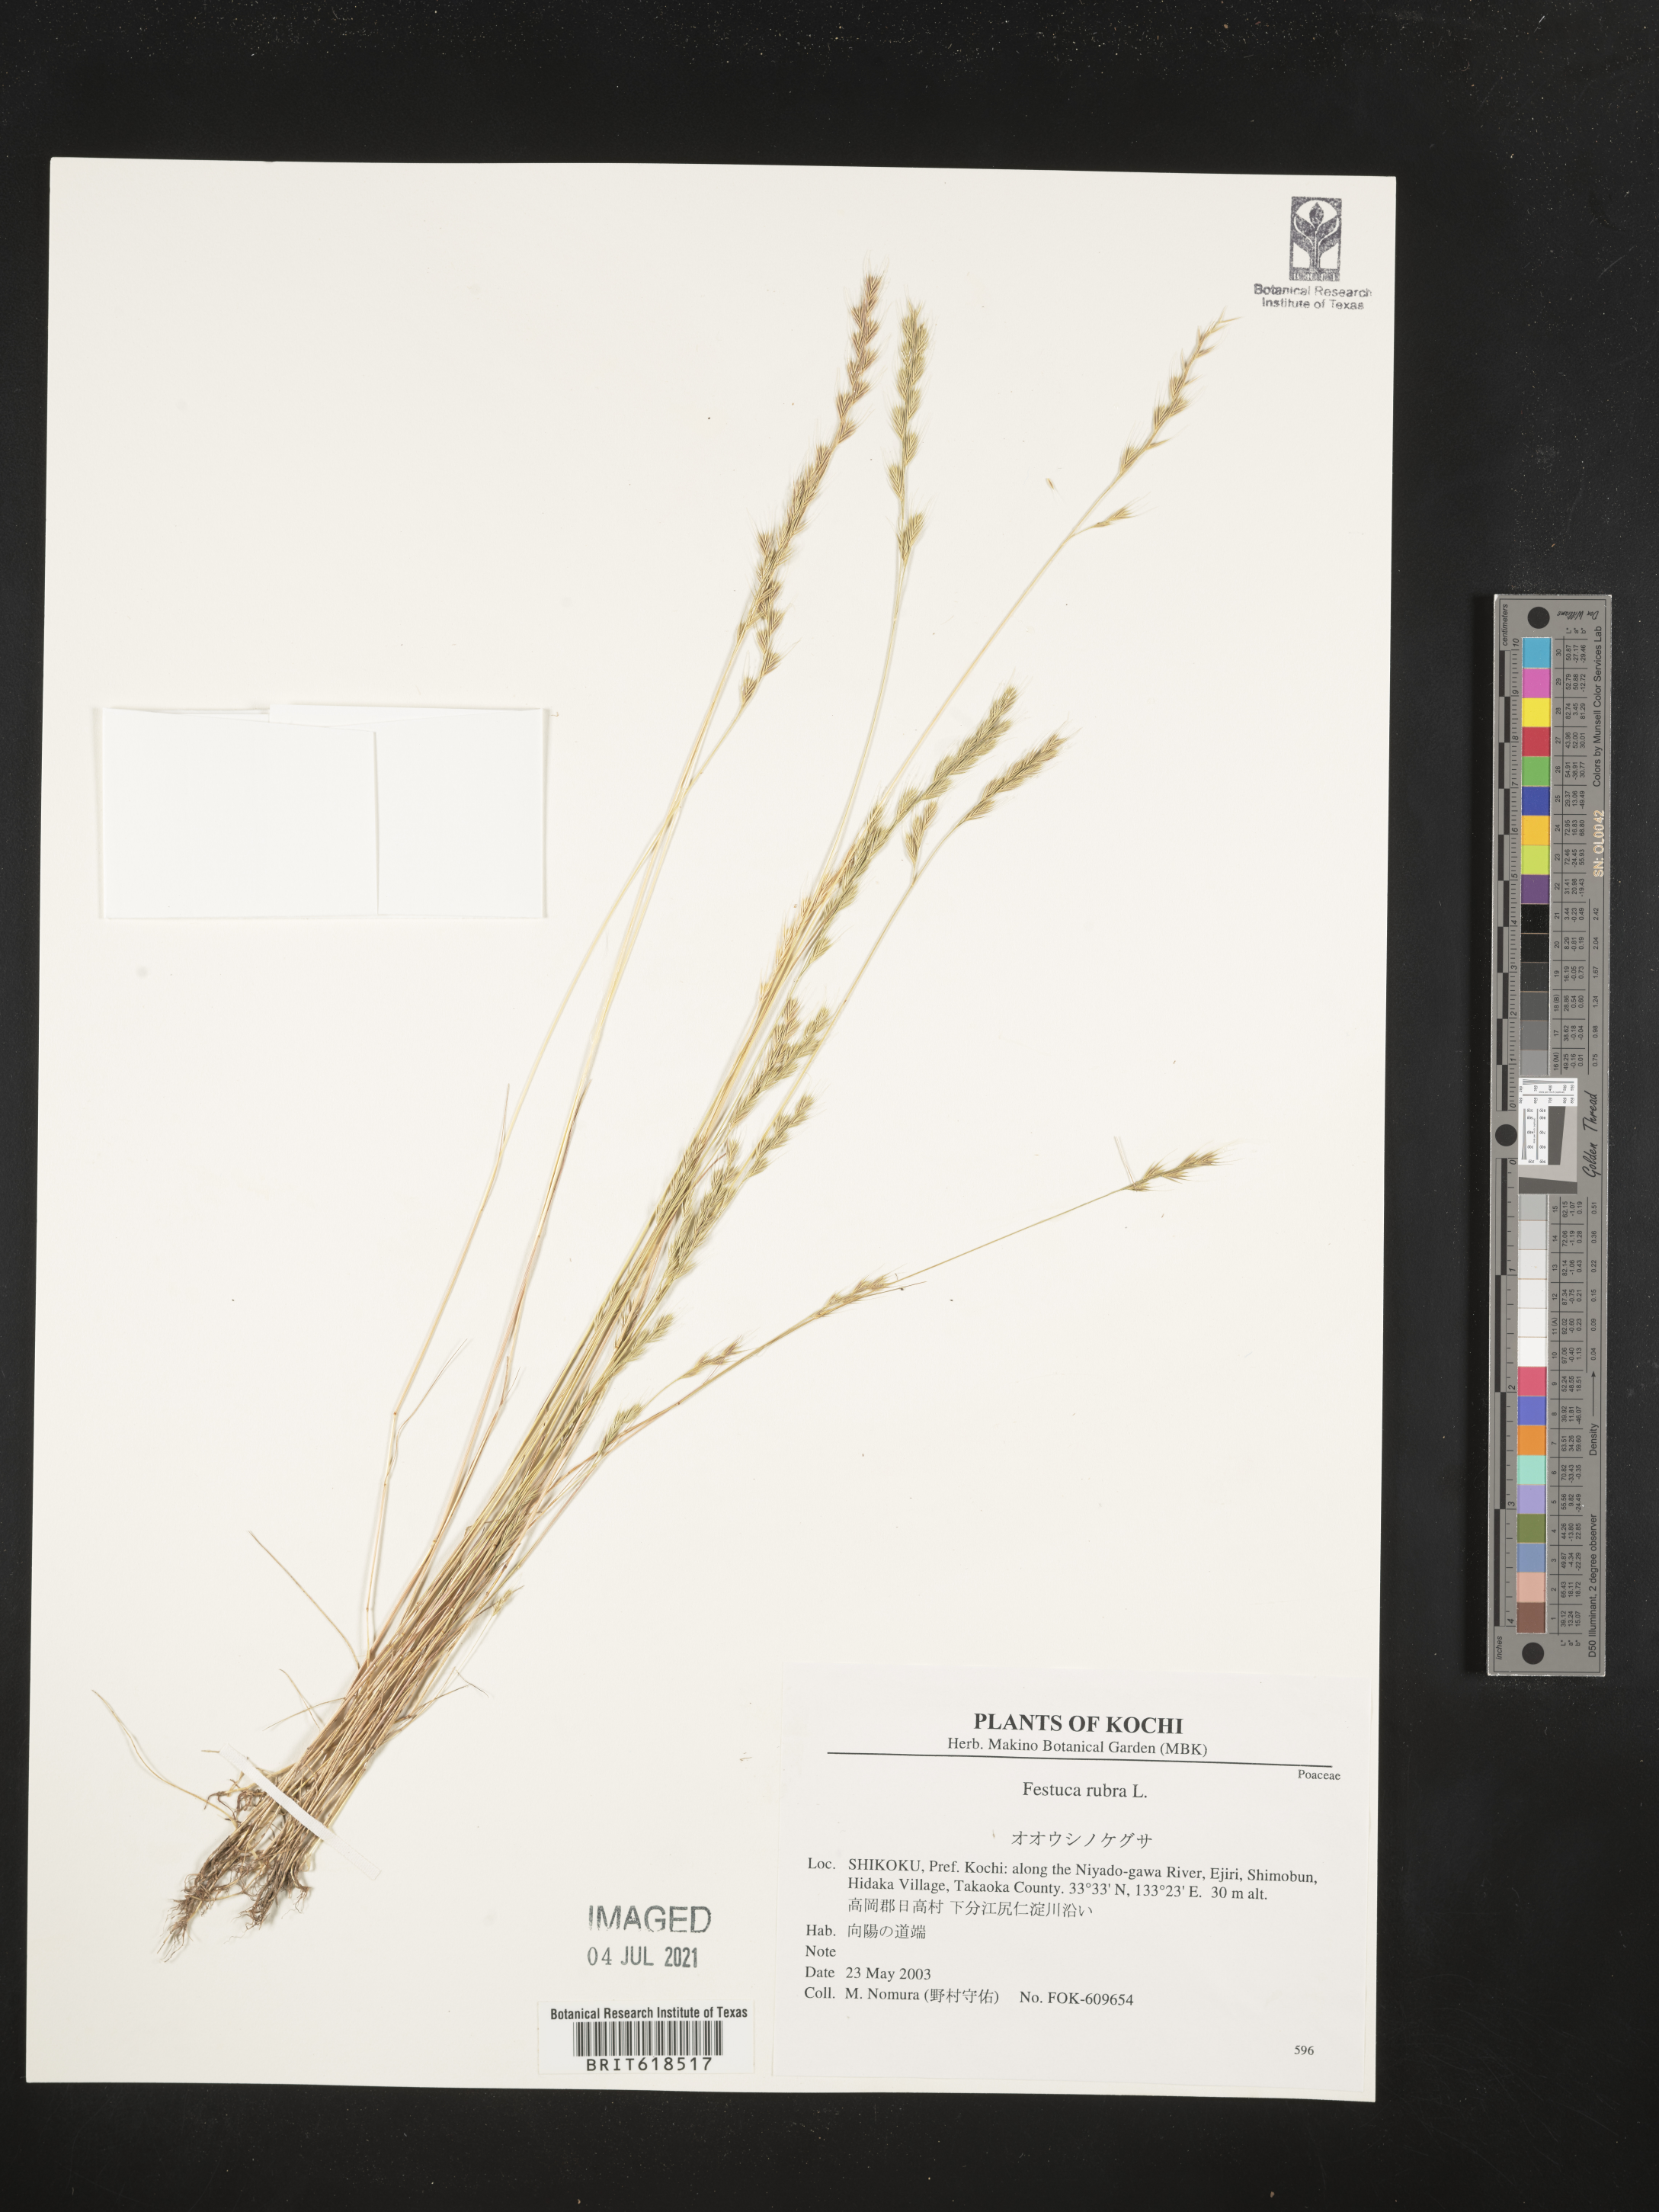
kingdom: Plantae
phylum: Tracheophyta
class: Liliopsida
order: Poales
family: Poaceae
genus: Festuca
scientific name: Festuca rubra
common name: Red fescue
